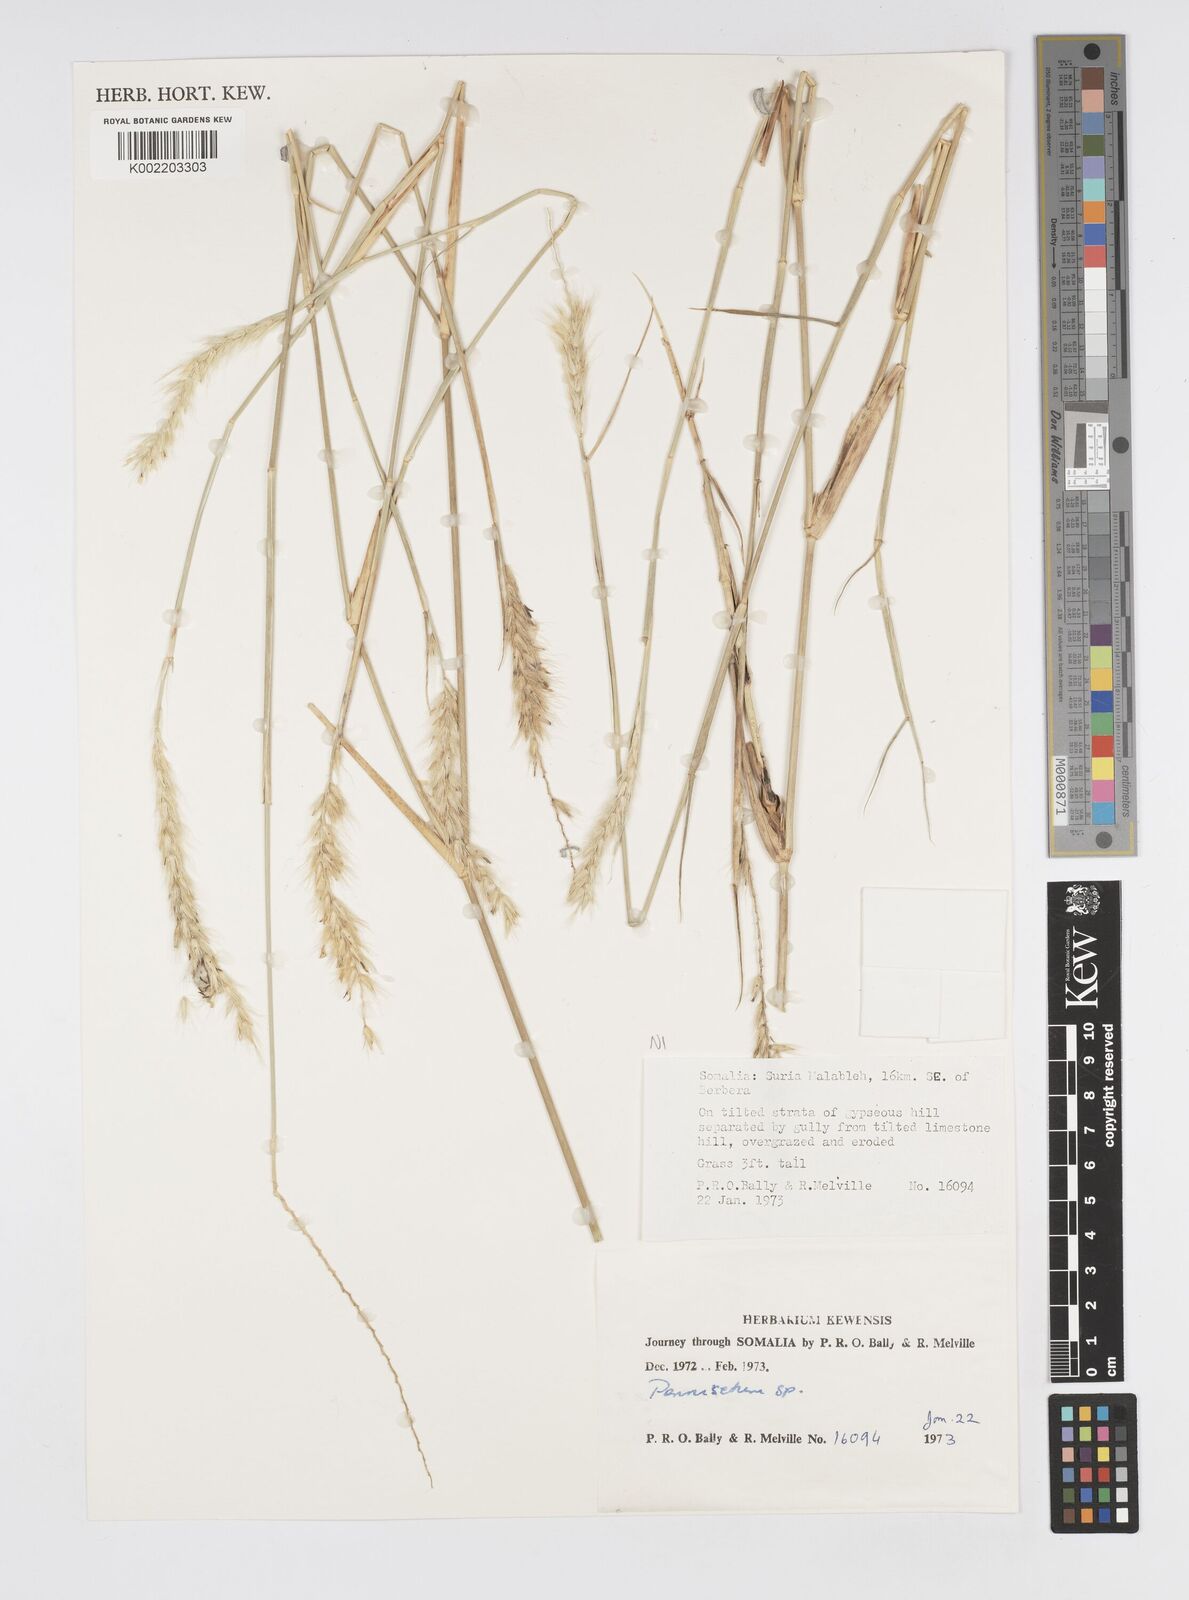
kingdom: Plantae
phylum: Tracheophyta
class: Liliopsida
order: Poales
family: Poaceae
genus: Cenchrus
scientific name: Cenchrus divisus
